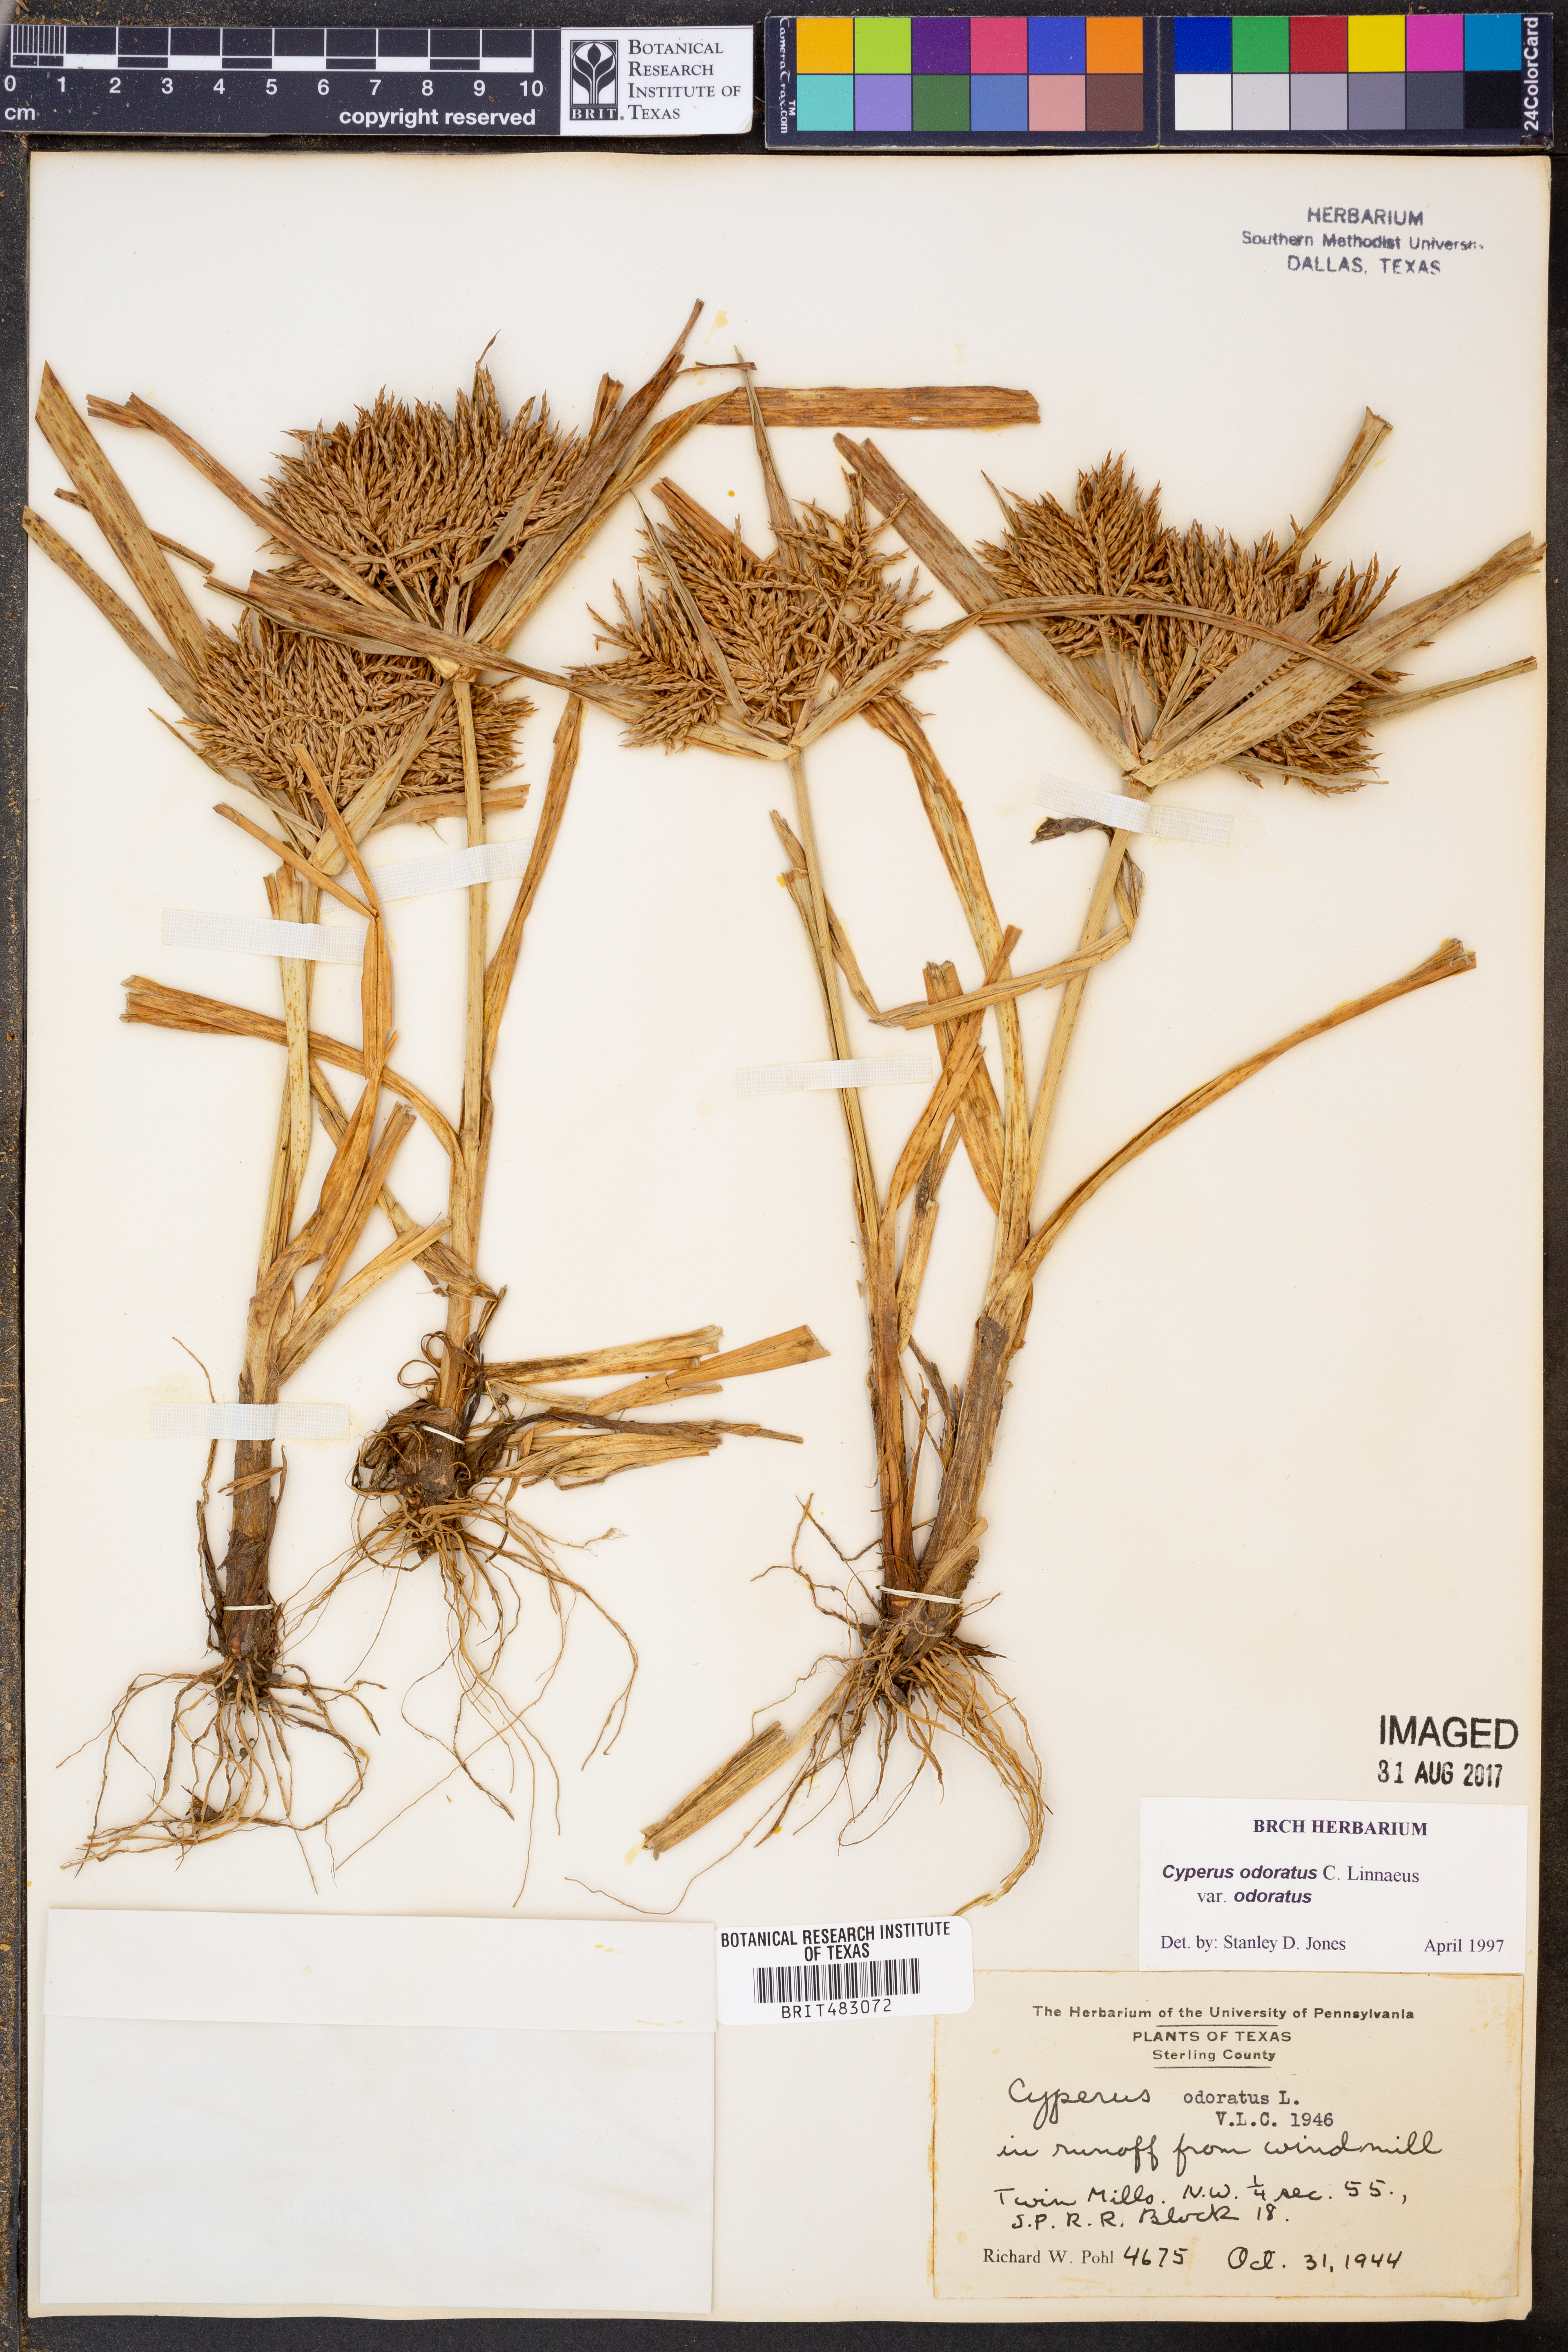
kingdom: Plantae
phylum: Tracheophyta
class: Liliopsida
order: Poales
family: Cyperaceae
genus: Cyperus
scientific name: Cyperus odoratus
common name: Fragrant flatsedge
